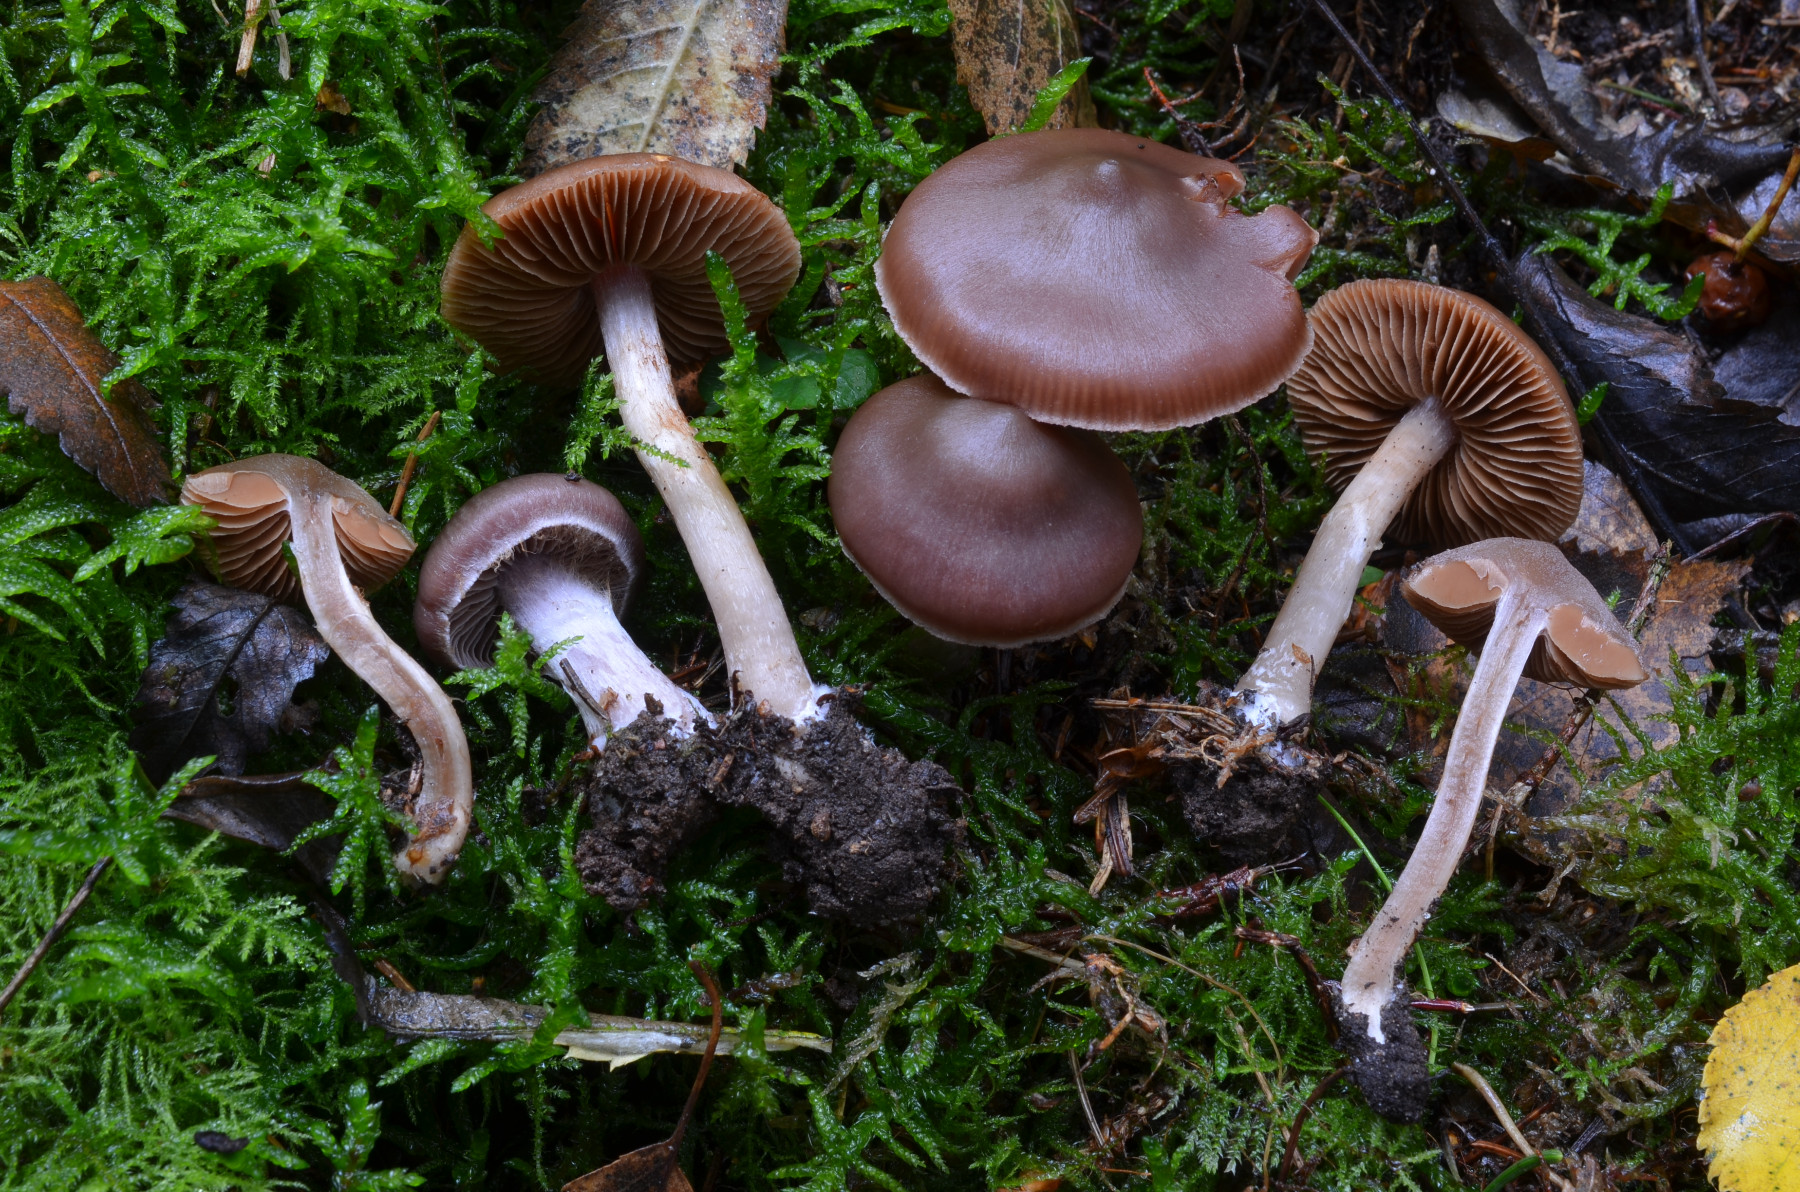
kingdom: Fungi
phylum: Basidiomycota
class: Agaricomycetes
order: Agaricales
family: Cortinariaceae
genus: Cortinarius
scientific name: Cortinarius hircinosmus
